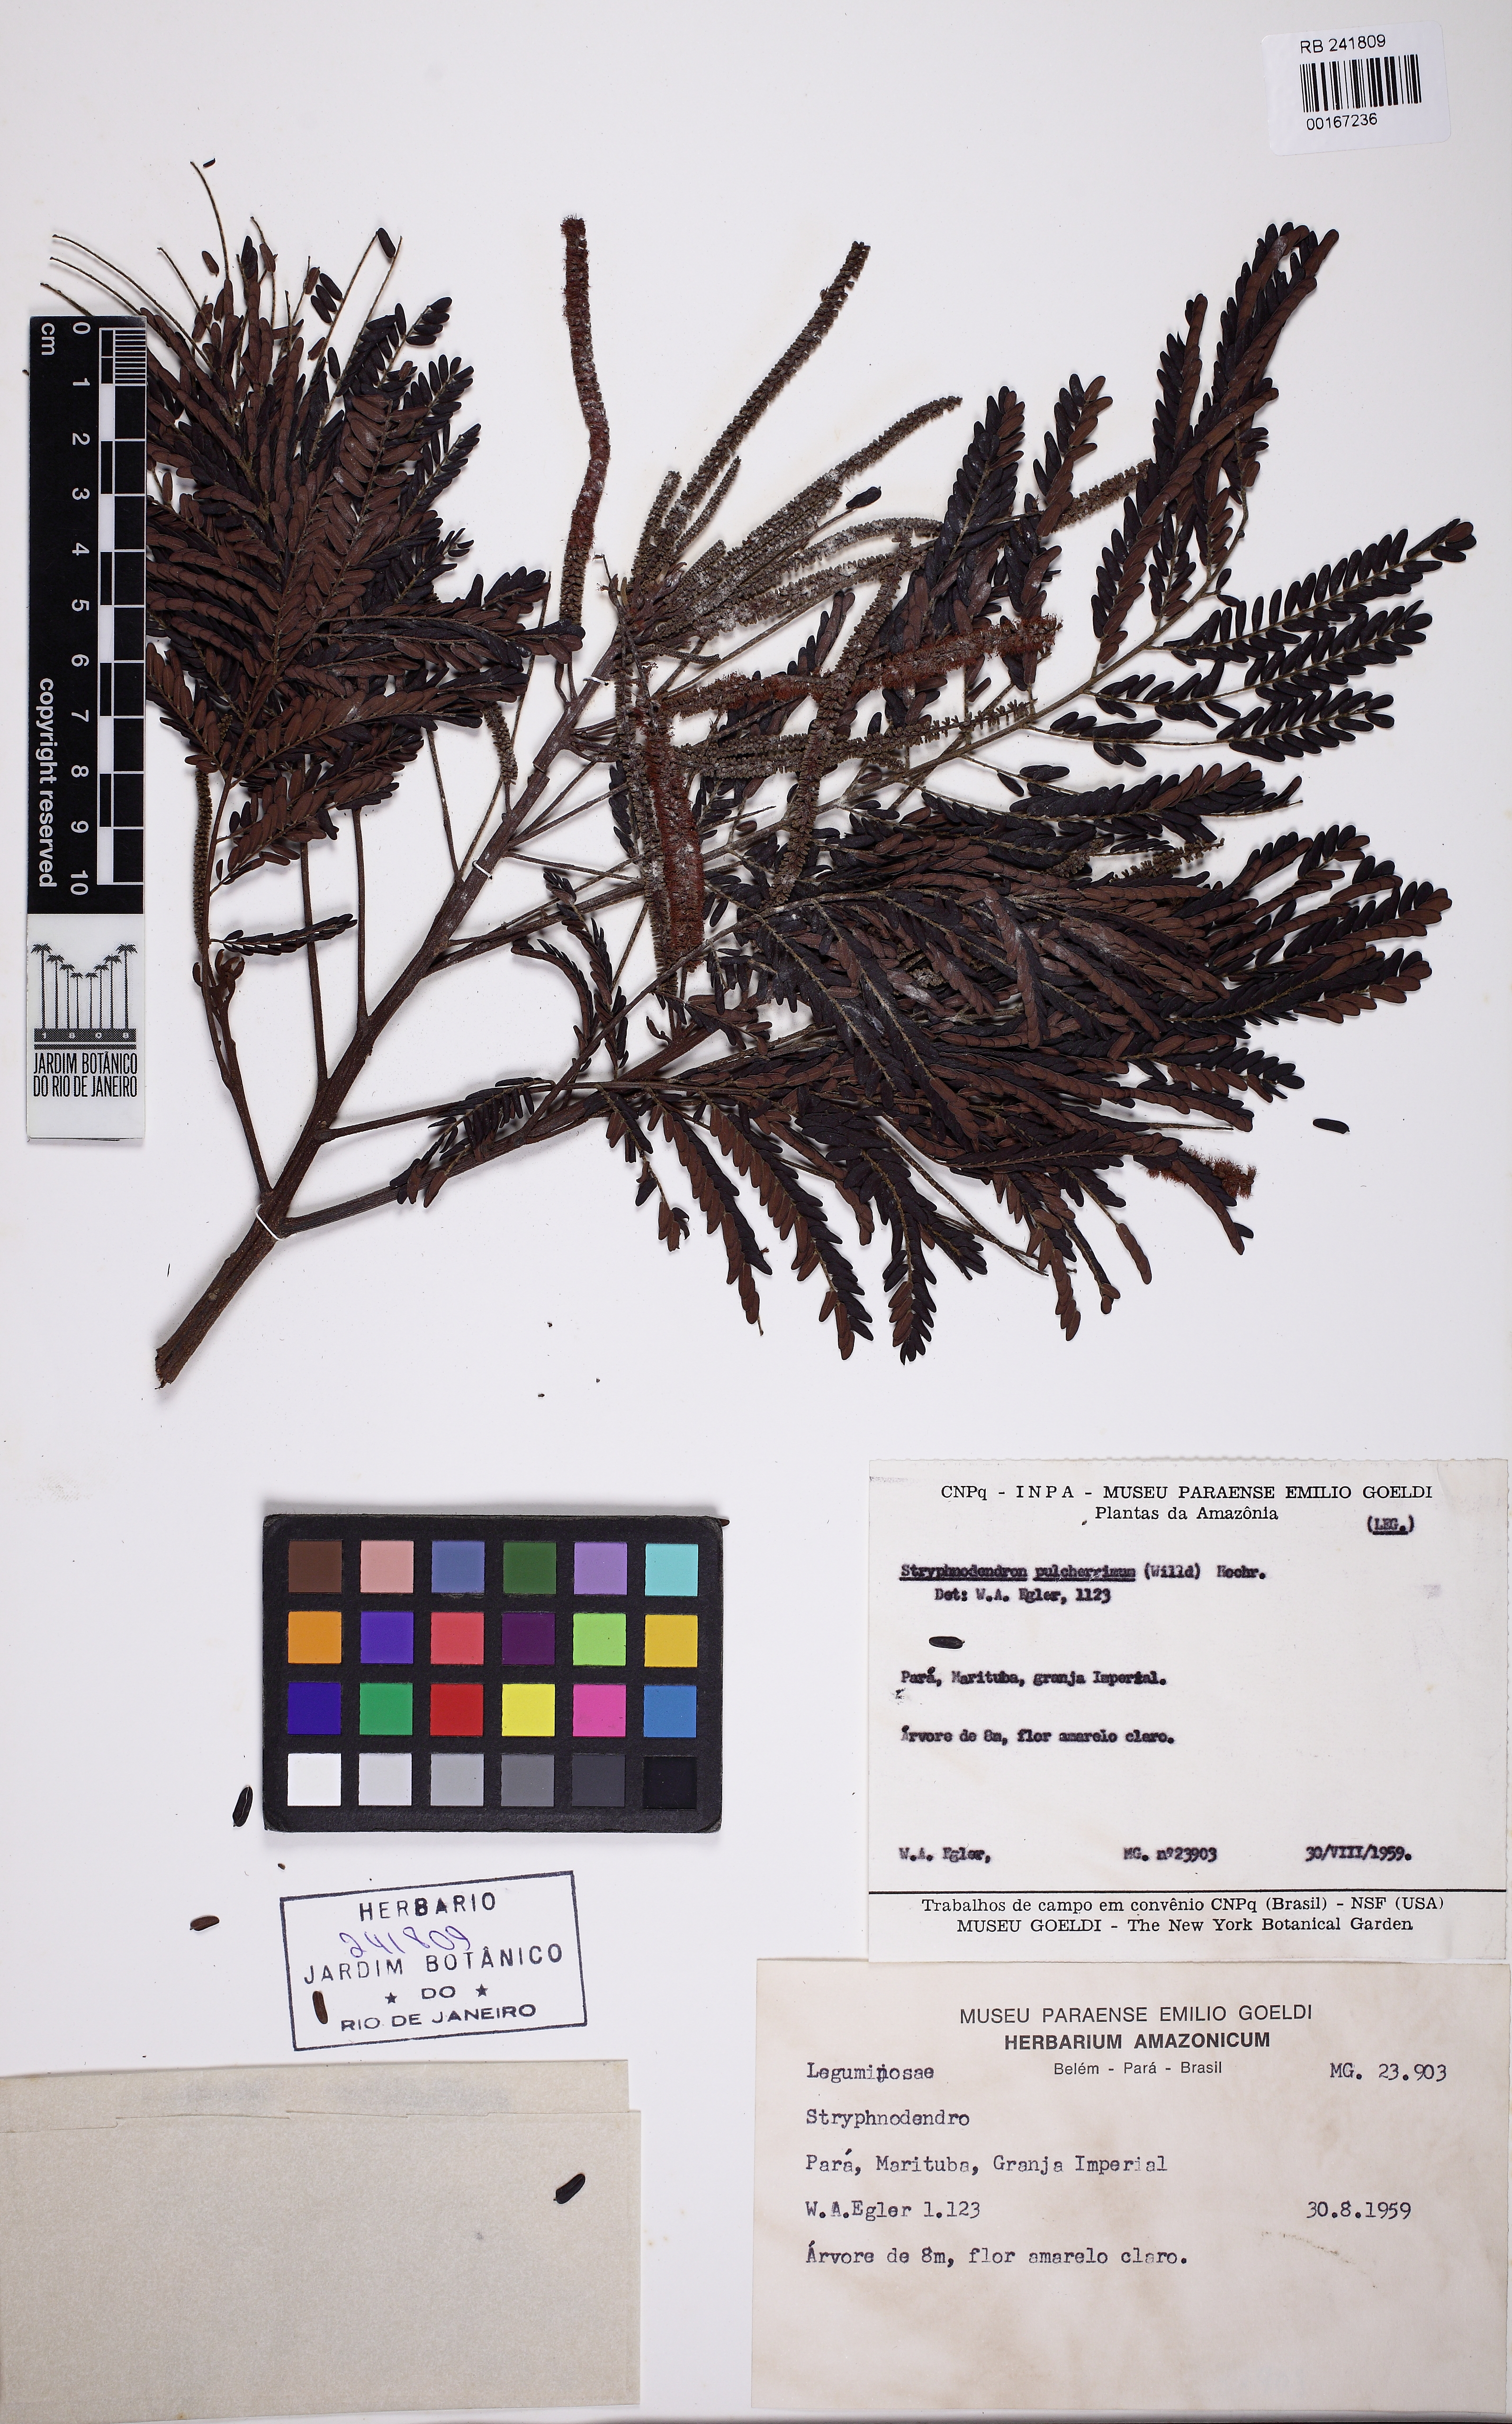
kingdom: Plantae
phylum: Tracheophyta
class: Magnoliopsida
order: Fabales
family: Fabaceae
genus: Stryphnodendron
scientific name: Stryphnodendron pulcherrimum
